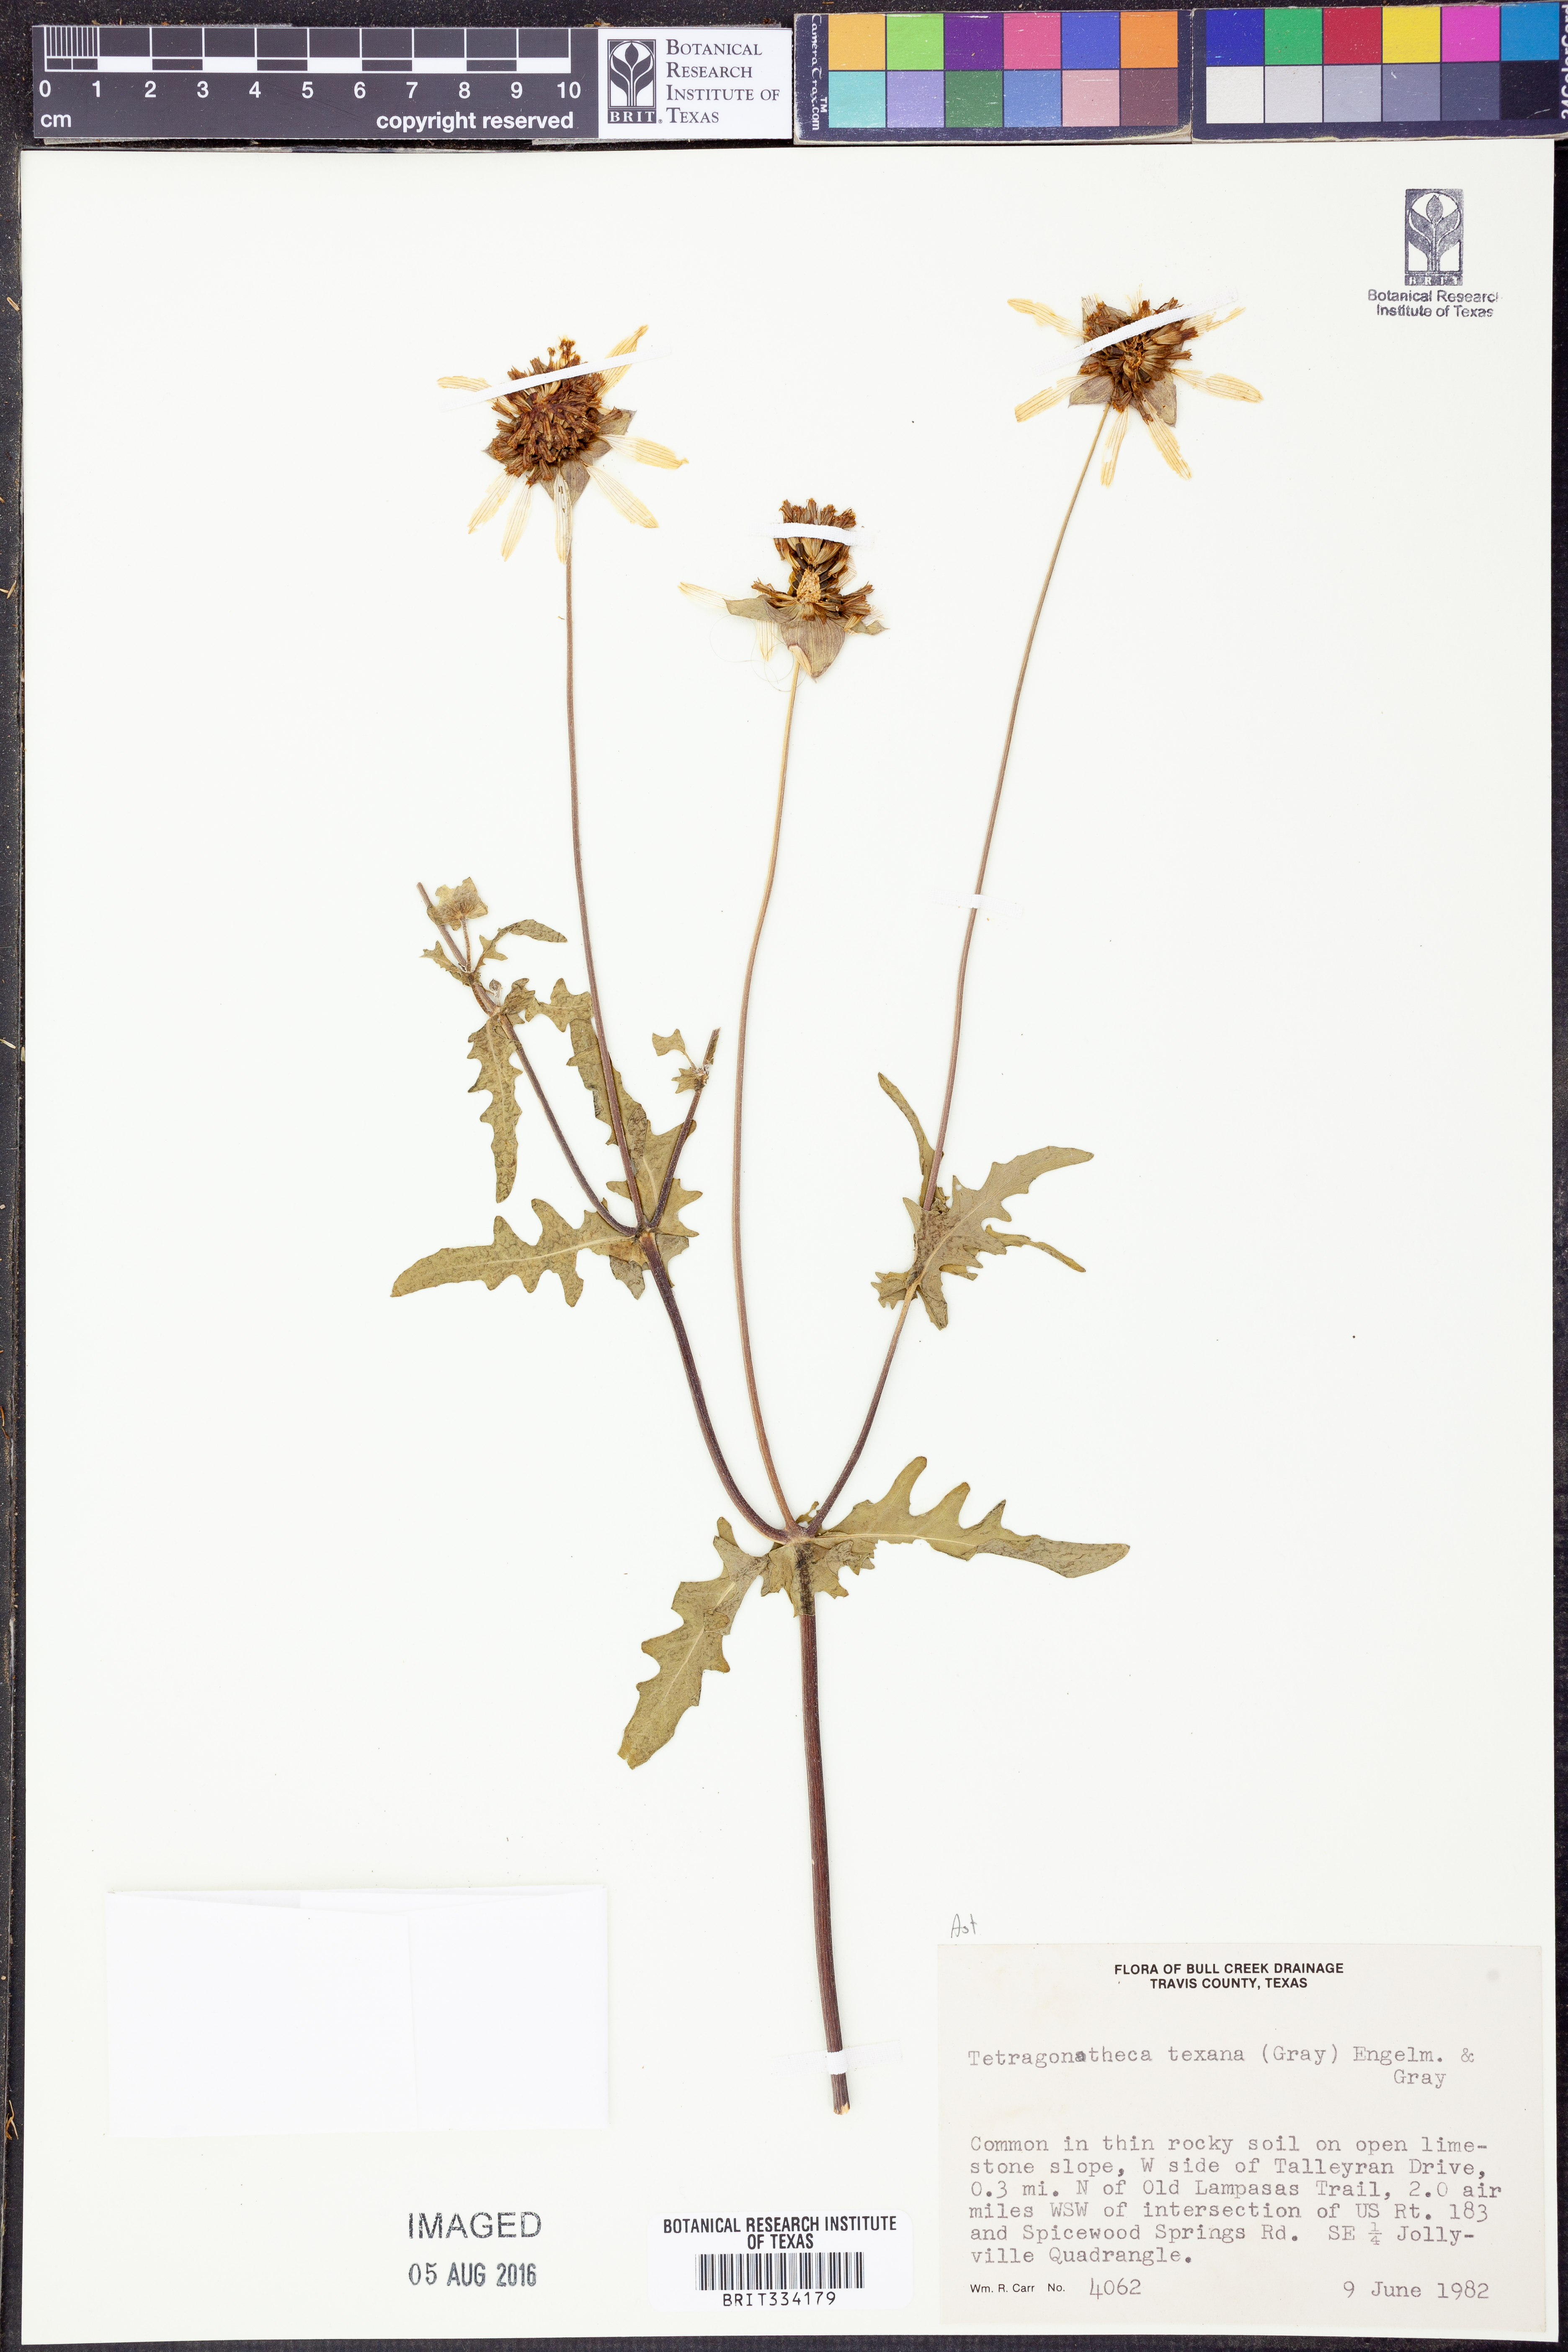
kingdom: Plantae
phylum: Tracheophyta
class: Magnoliopsida
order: Asterales
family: Asteraceae
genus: Tetragonotheca
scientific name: Tetragonotheca texana
